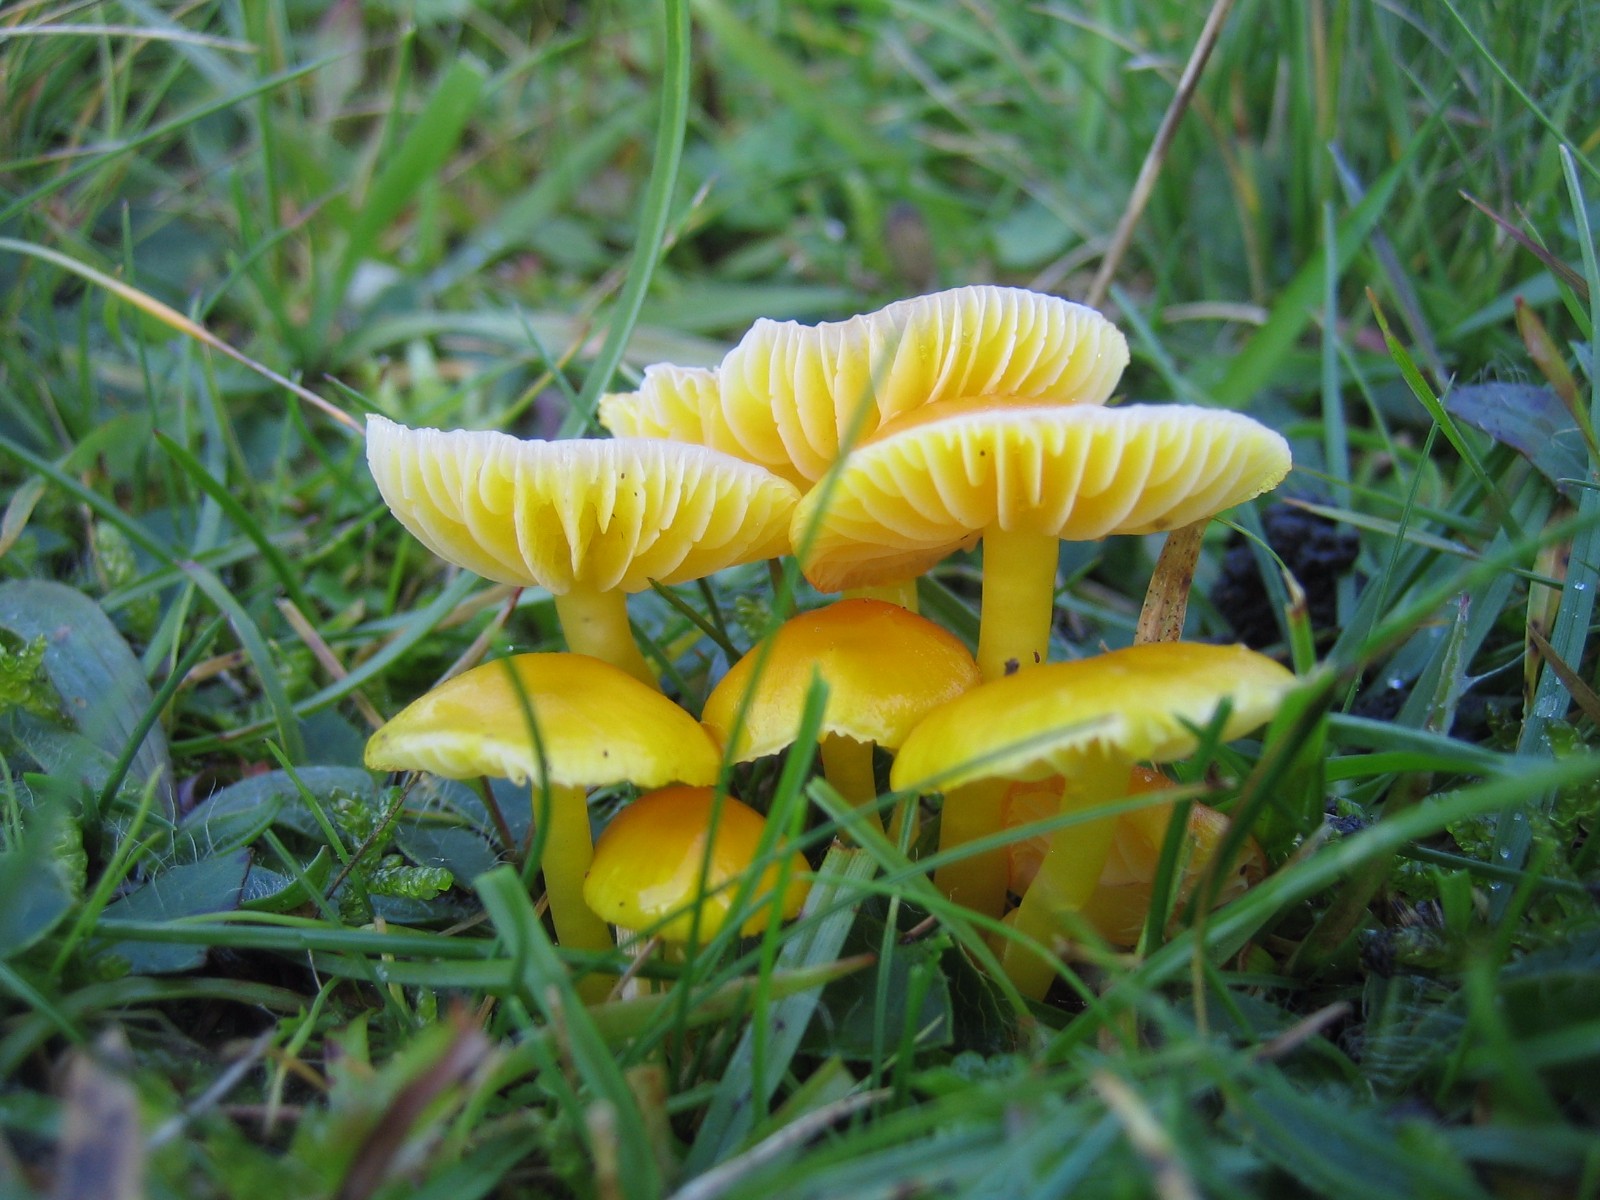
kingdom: Fungi
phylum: Basidiomycota
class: Agaricomycetes
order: Agaricales
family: Hygrophoraceae
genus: Hygrocybe
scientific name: Hygrocybe ceracea
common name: voksgul vokshat
